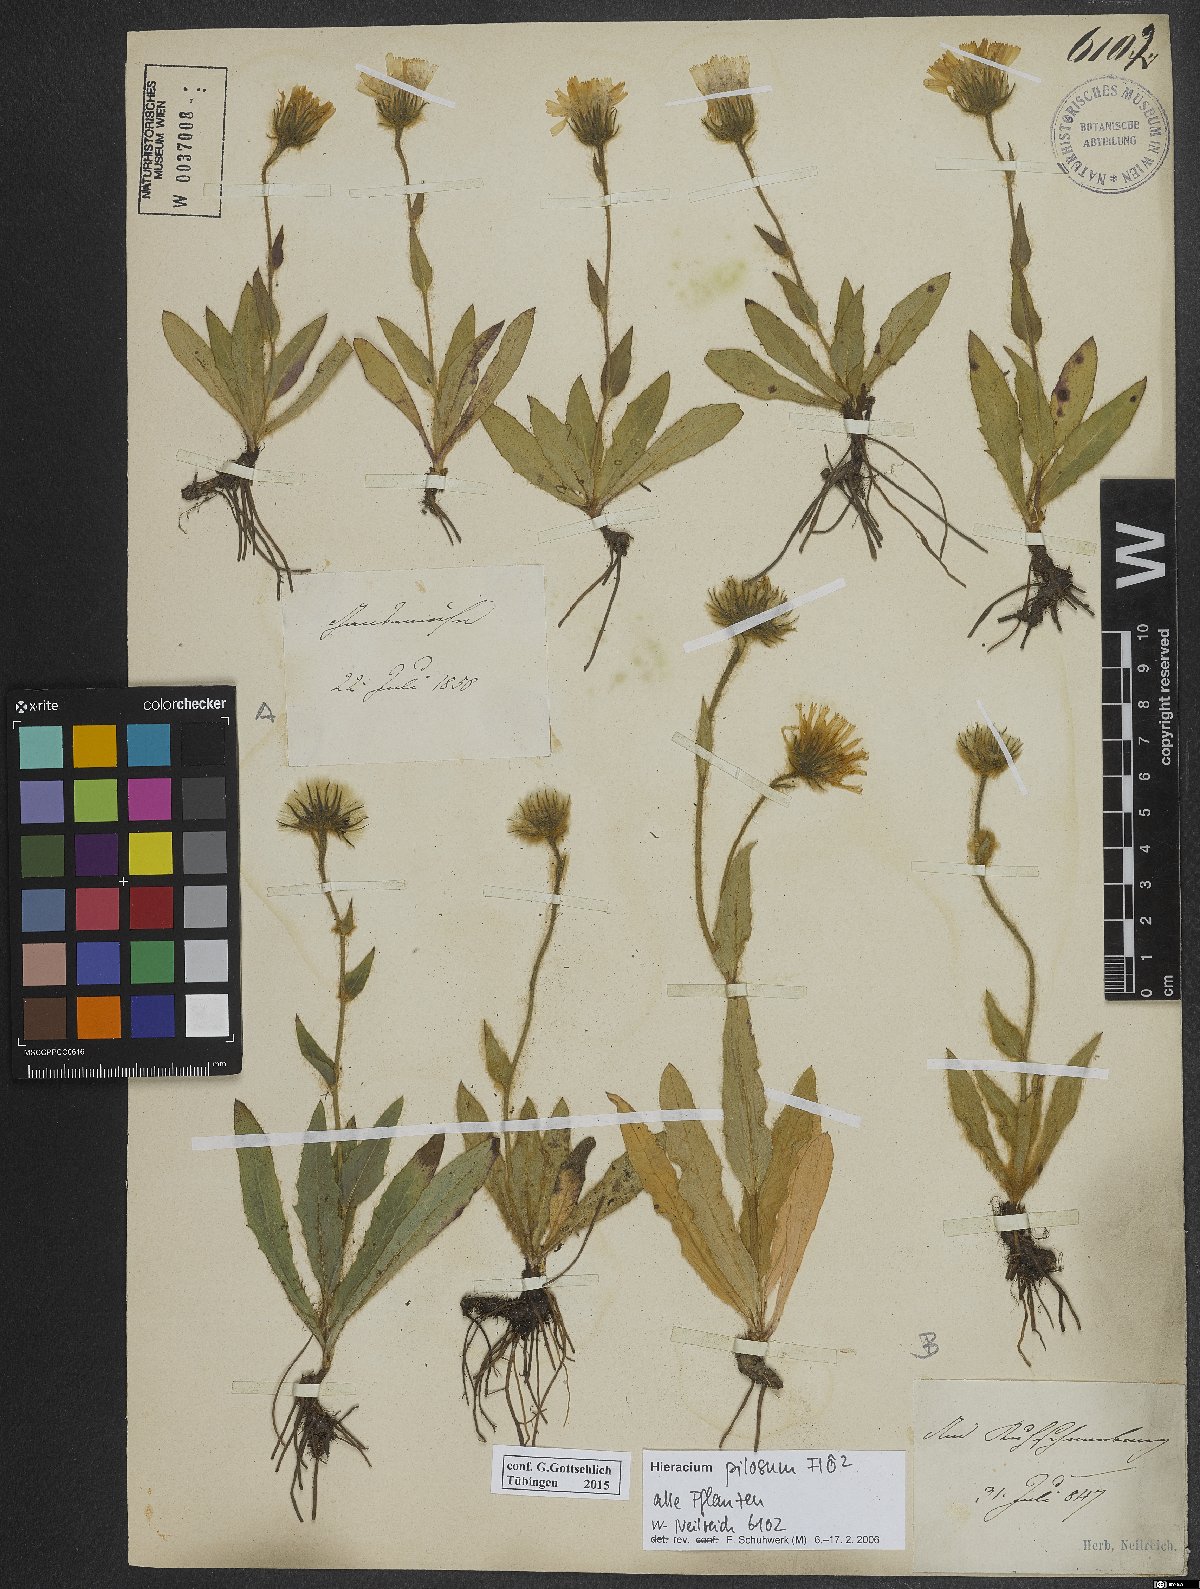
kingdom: Plantae
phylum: Tracheophyta
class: Magnoliopsida
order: Asterales
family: Asteraceae
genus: Hieracium
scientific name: Hieracium pilosum
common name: Fimbriate-pitted hawkweed
